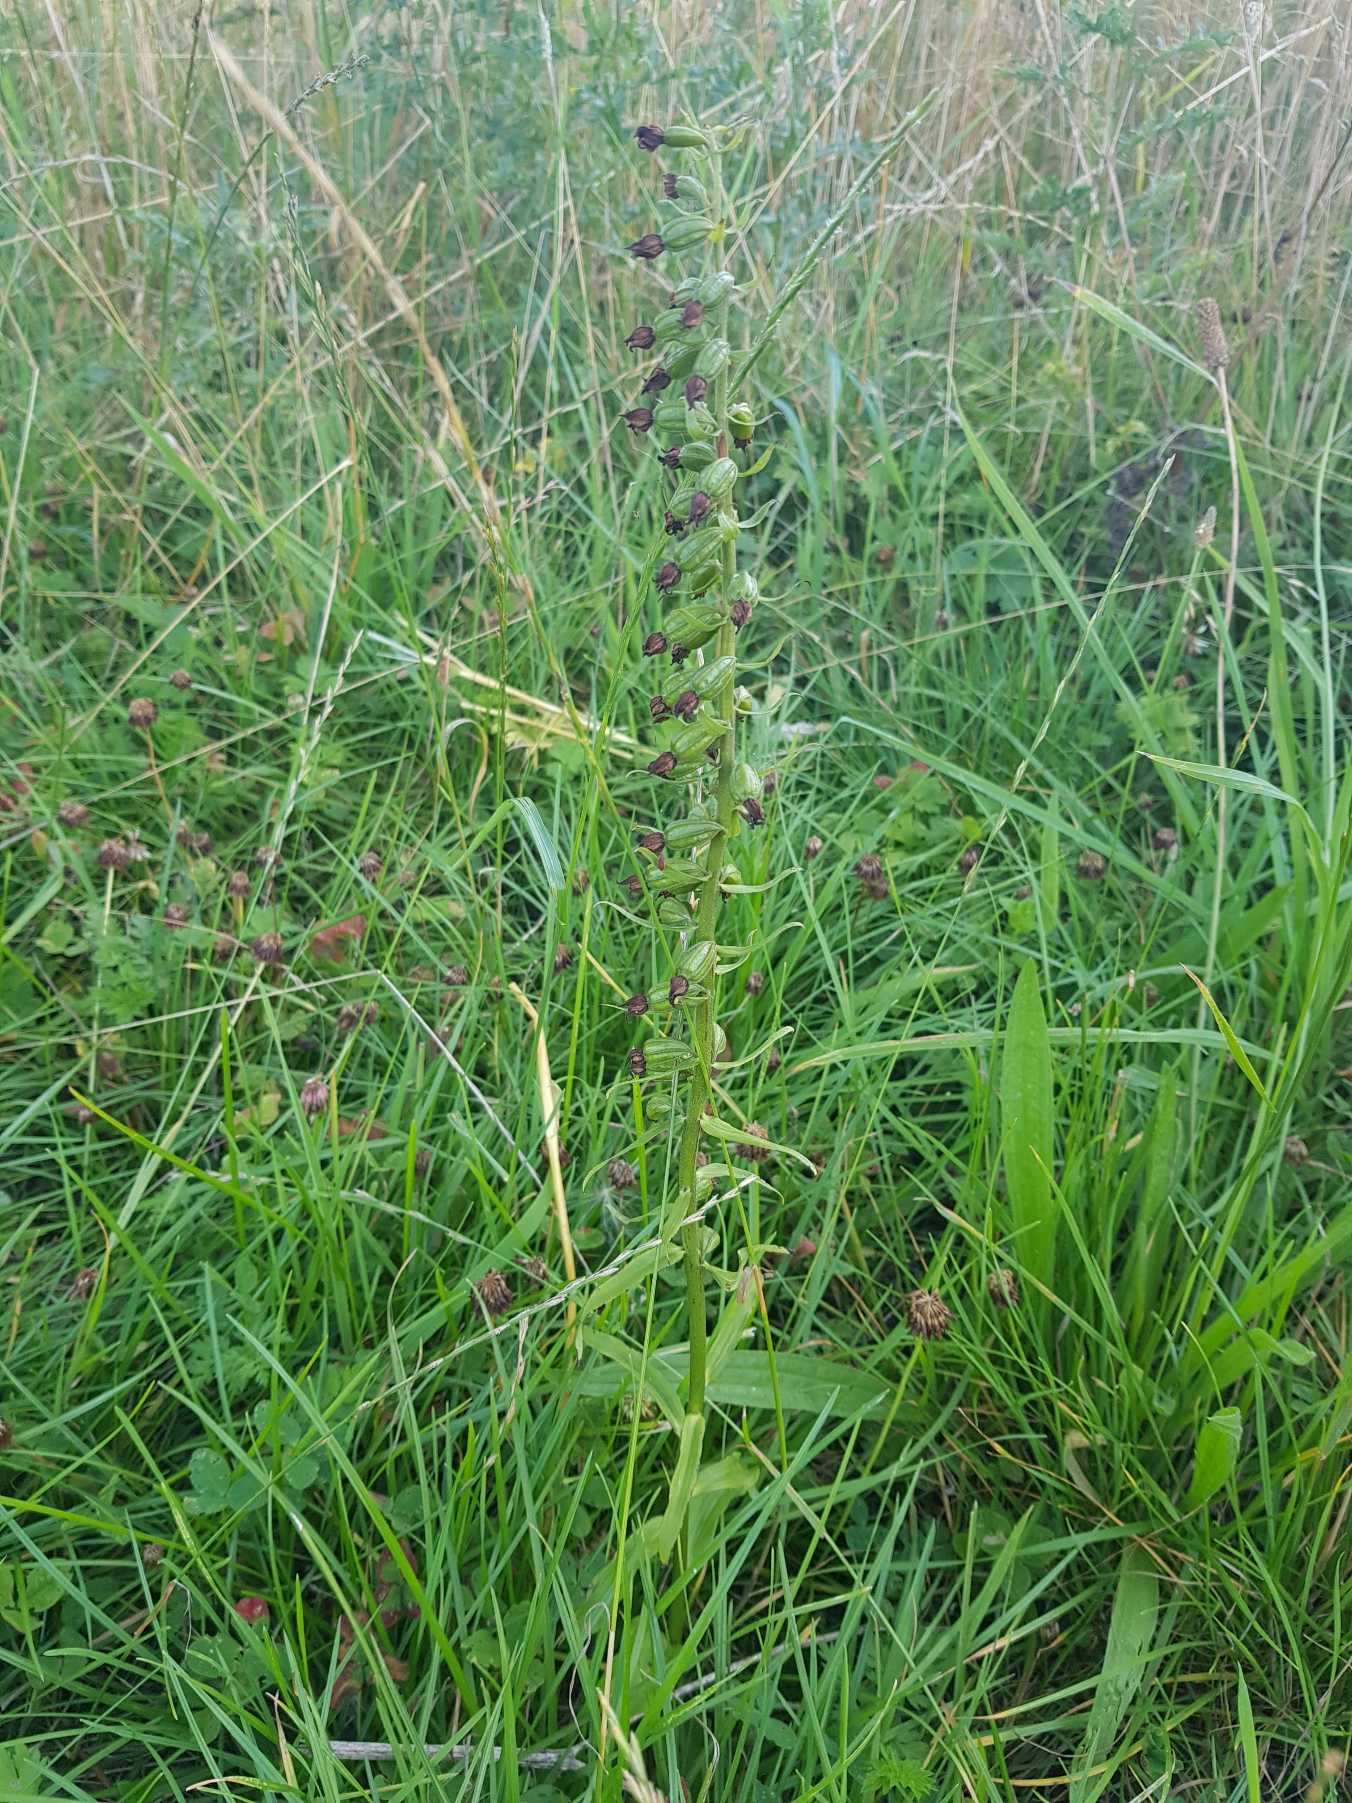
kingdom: Plantae
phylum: Tracheophyta
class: Liliopsida
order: Asparagales
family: Orchidaceae
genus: Epipactis
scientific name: Epipactis helleborine
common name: Skov-hullæbe
